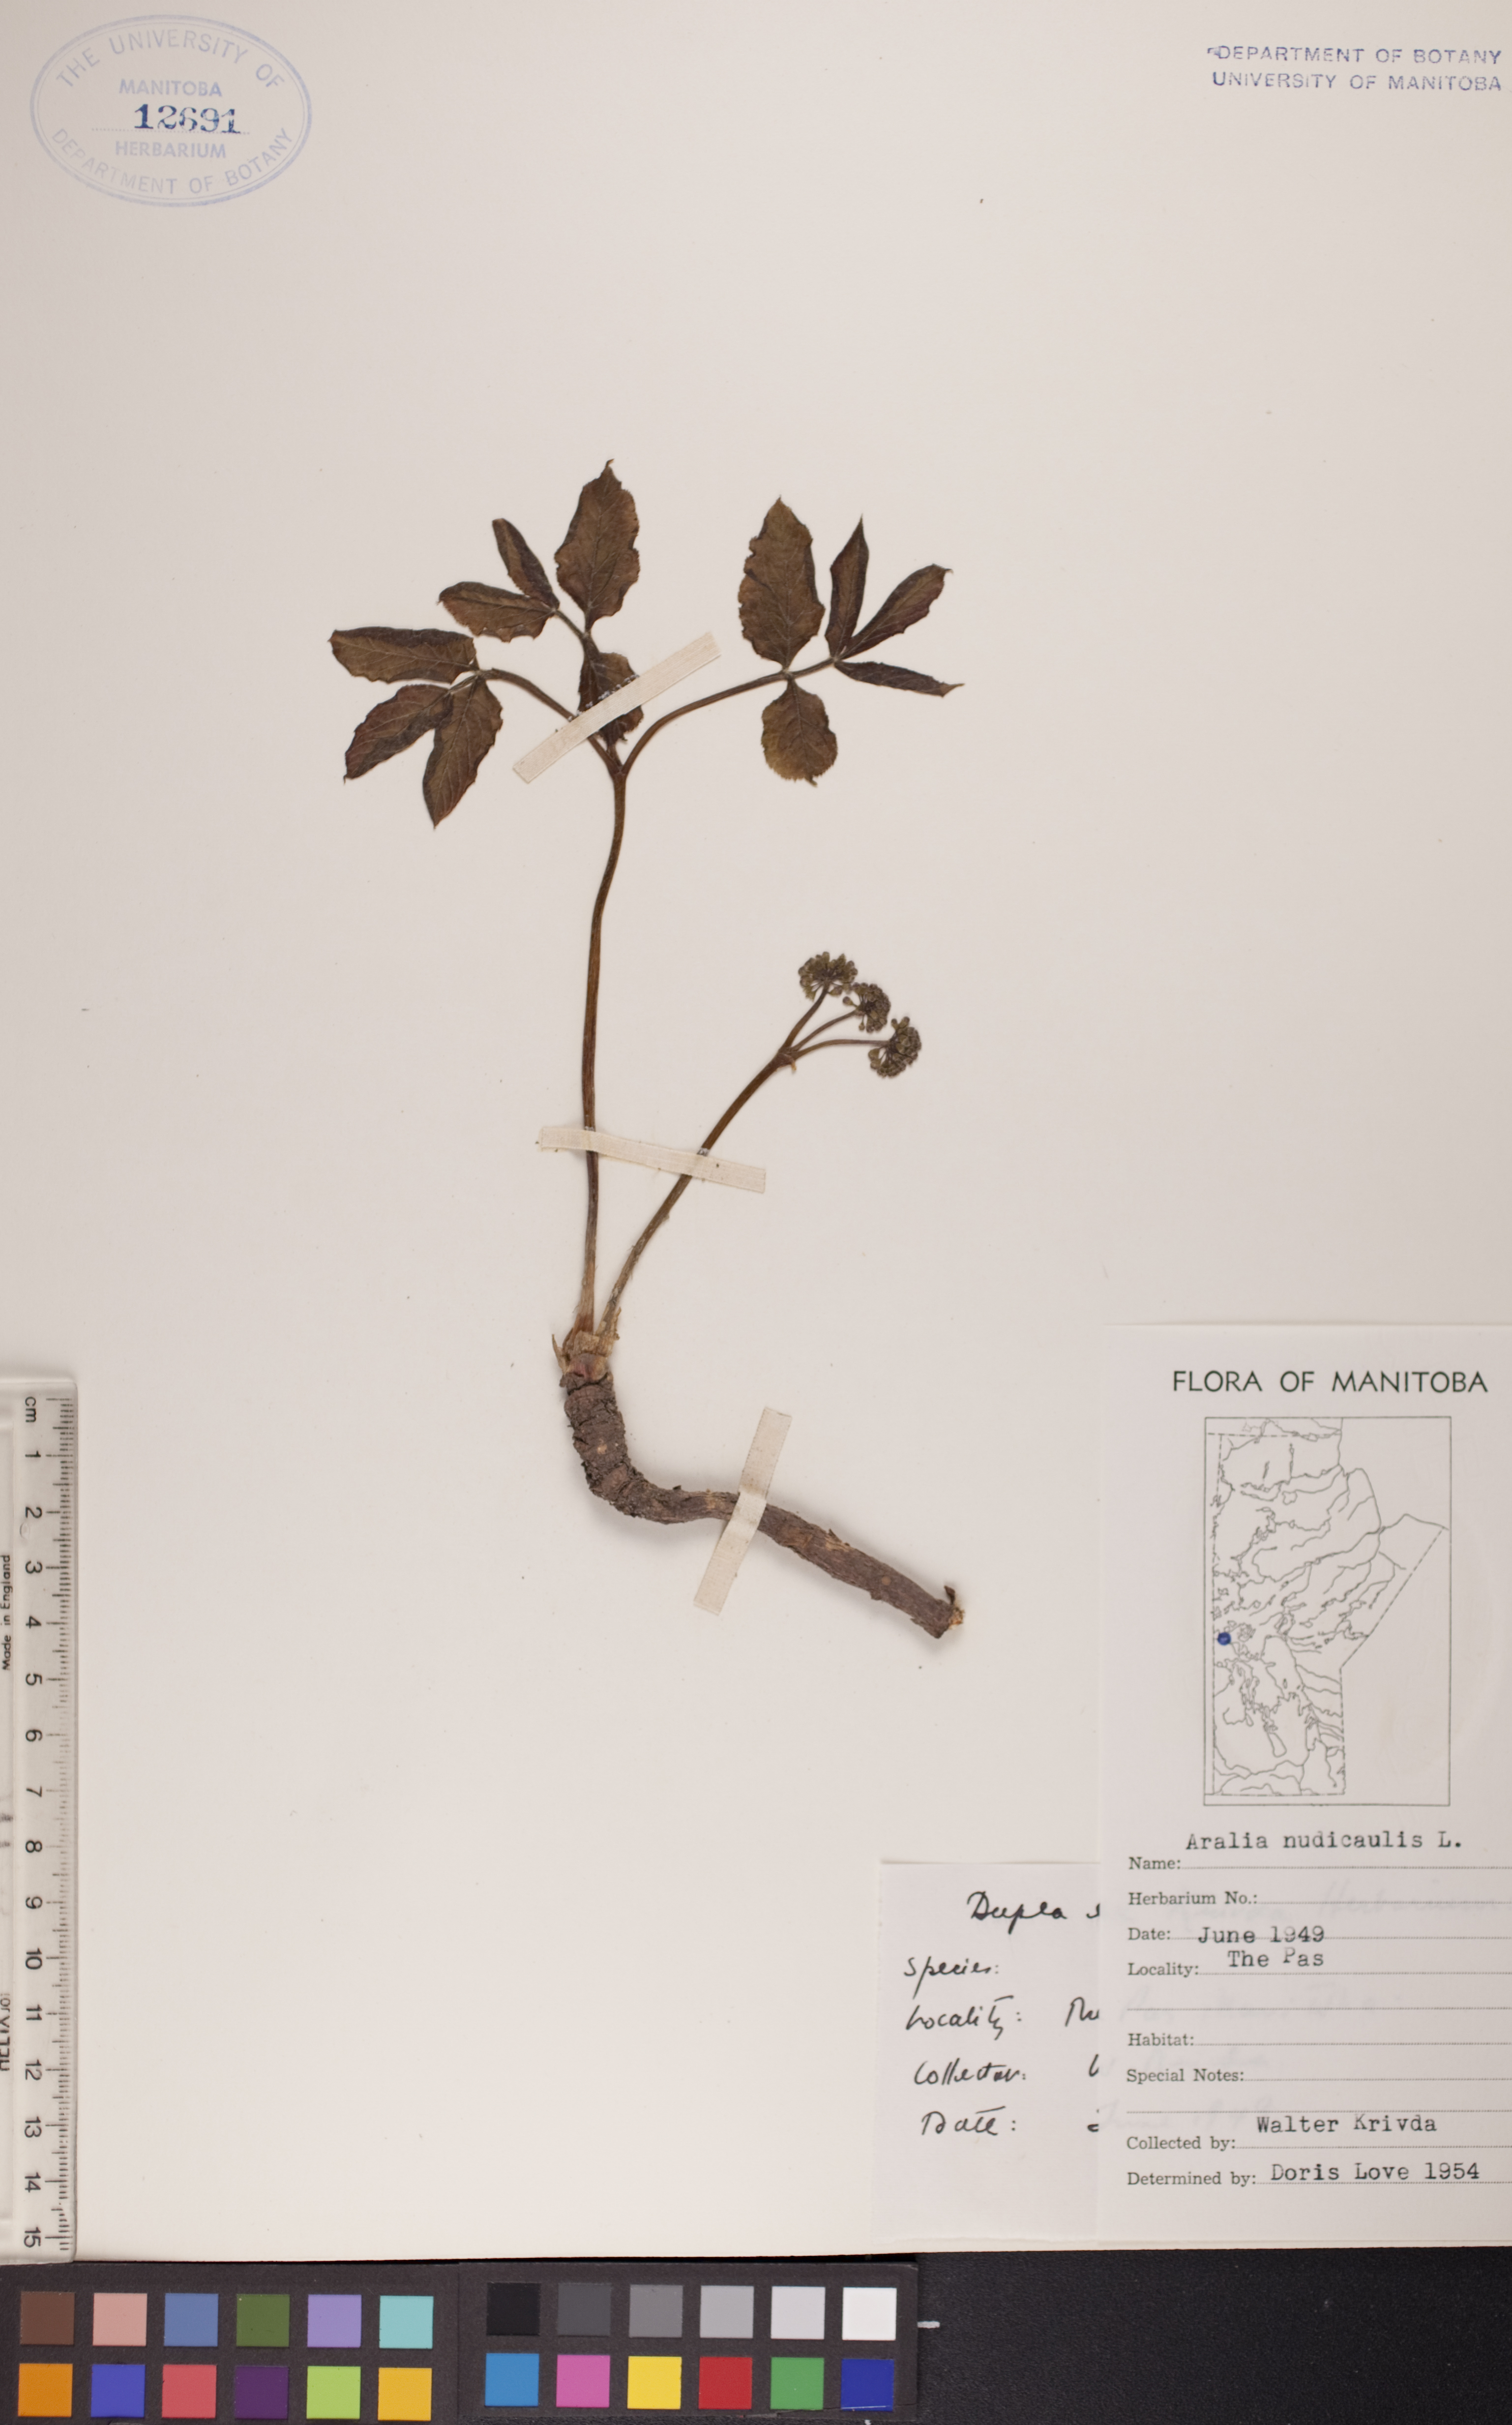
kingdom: Plantae
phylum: Tracheophyta
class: Magnoliopsida
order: Apiales
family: Araliaceae
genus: Aralia
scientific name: Aralia nudicaulis
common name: Wild sarsaparilla
